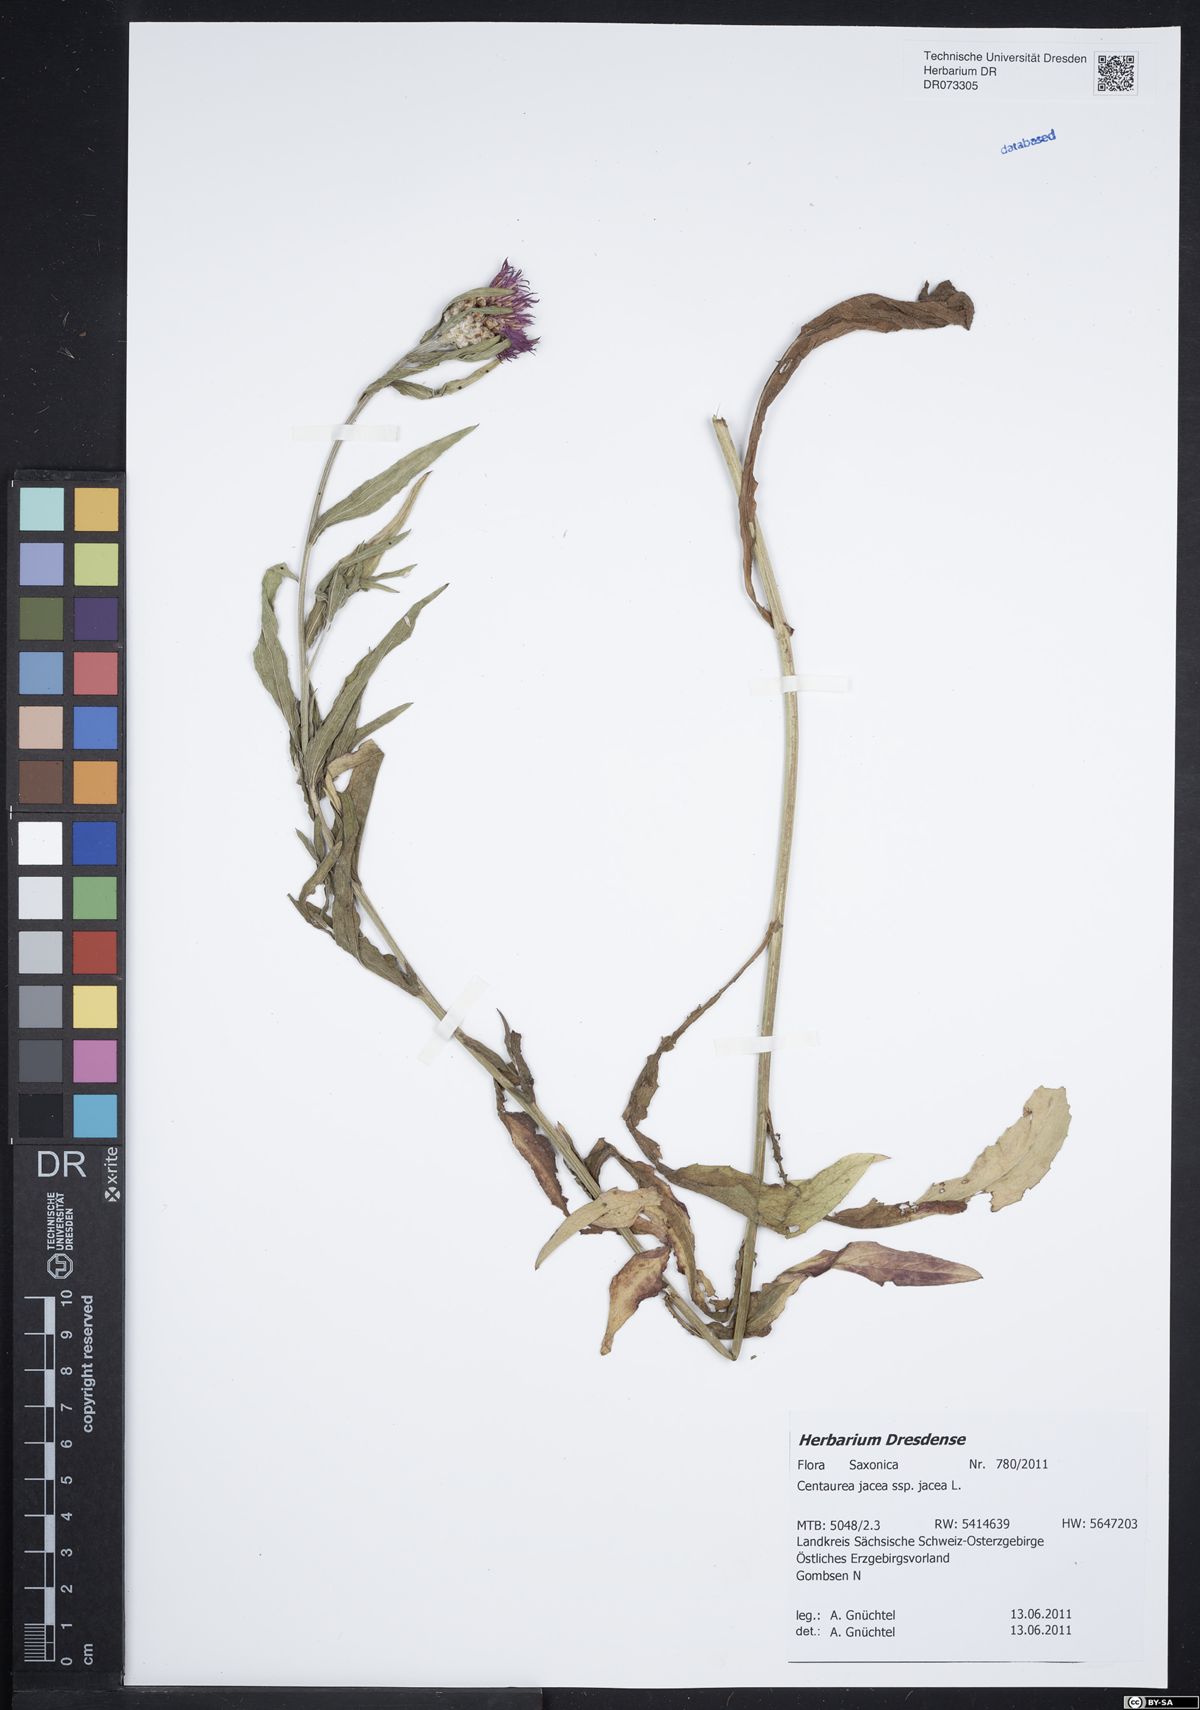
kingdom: Plantae
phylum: Tracheophyta
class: Magnoliopsida
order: Asterales
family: Asteraceae
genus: Centaurea
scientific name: Centaurea jacea
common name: Brown knapweed
